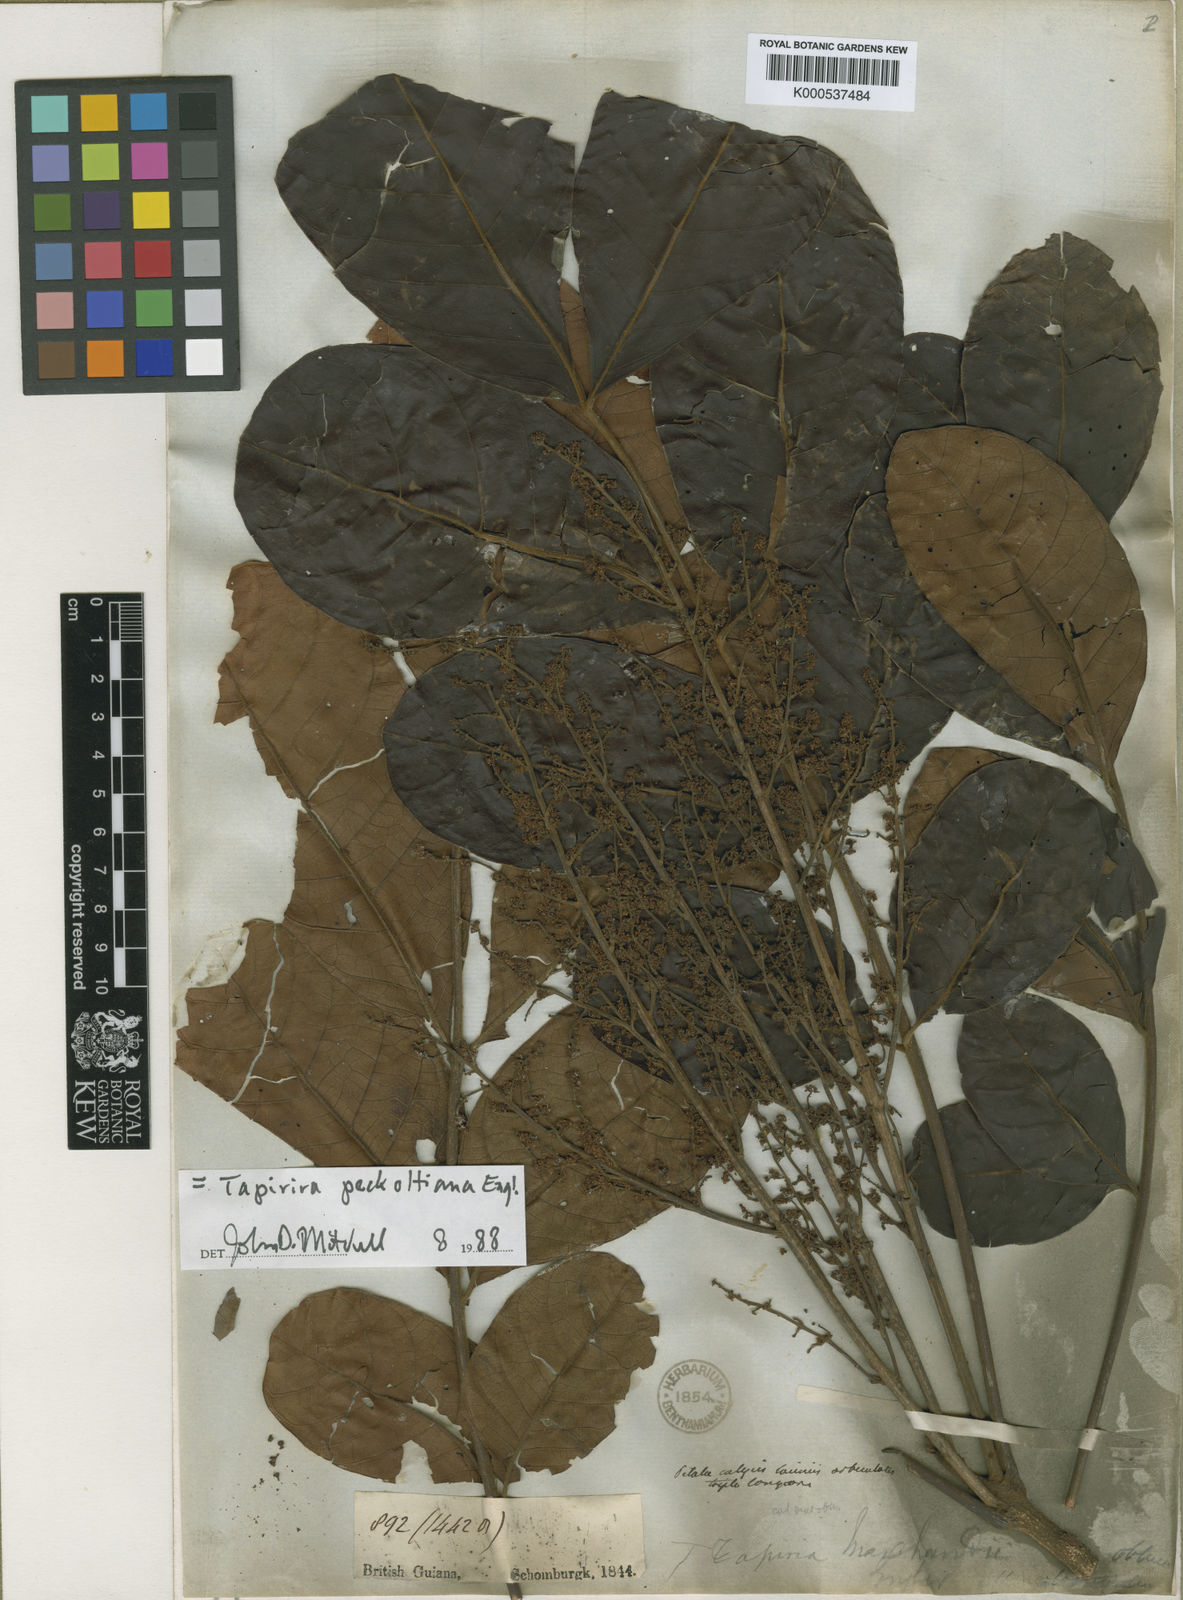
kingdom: Plantae
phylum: Tracheophyta
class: Magnoliopsida
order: Sapindales
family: Anacardiaceae
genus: Tapirira
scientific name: Tapirira obtusa
